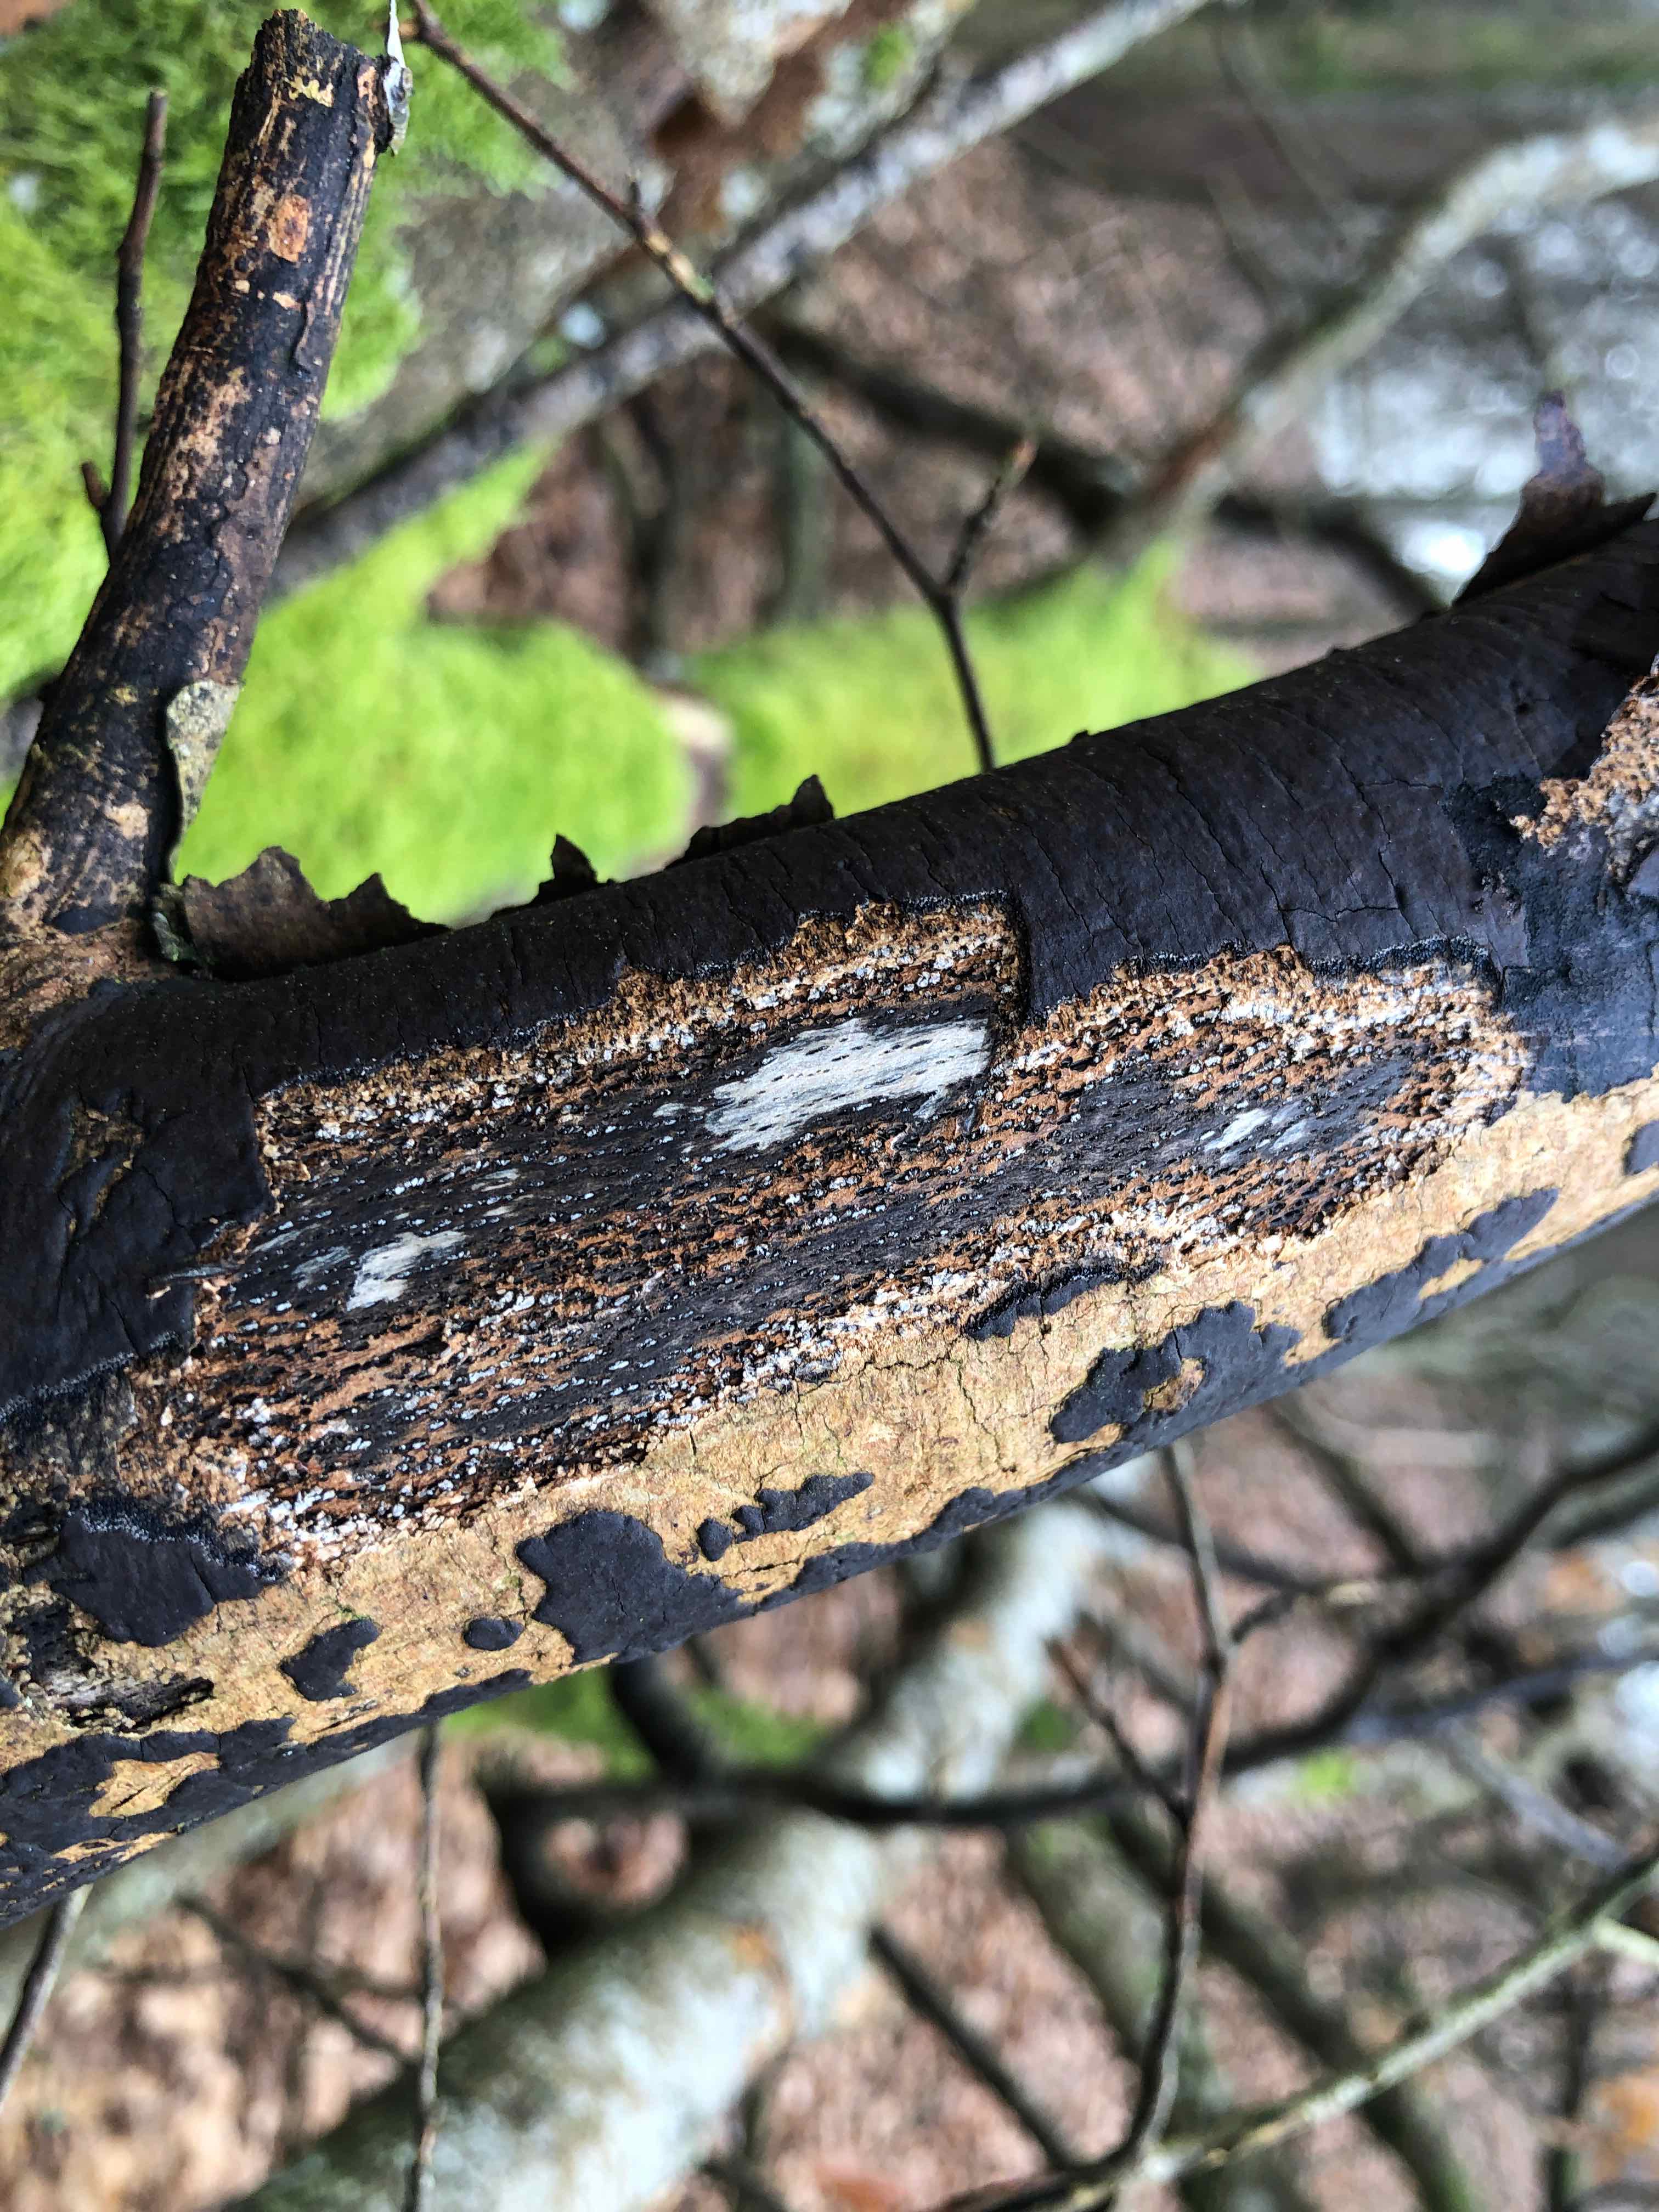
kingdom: Fungi
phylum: Ascomycota
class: Sordariomycetes
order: Xylariales
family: Diatrypaceae
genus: Diatrype
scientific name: Diatrype decorticata
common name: barksprænger-kulskorpe
